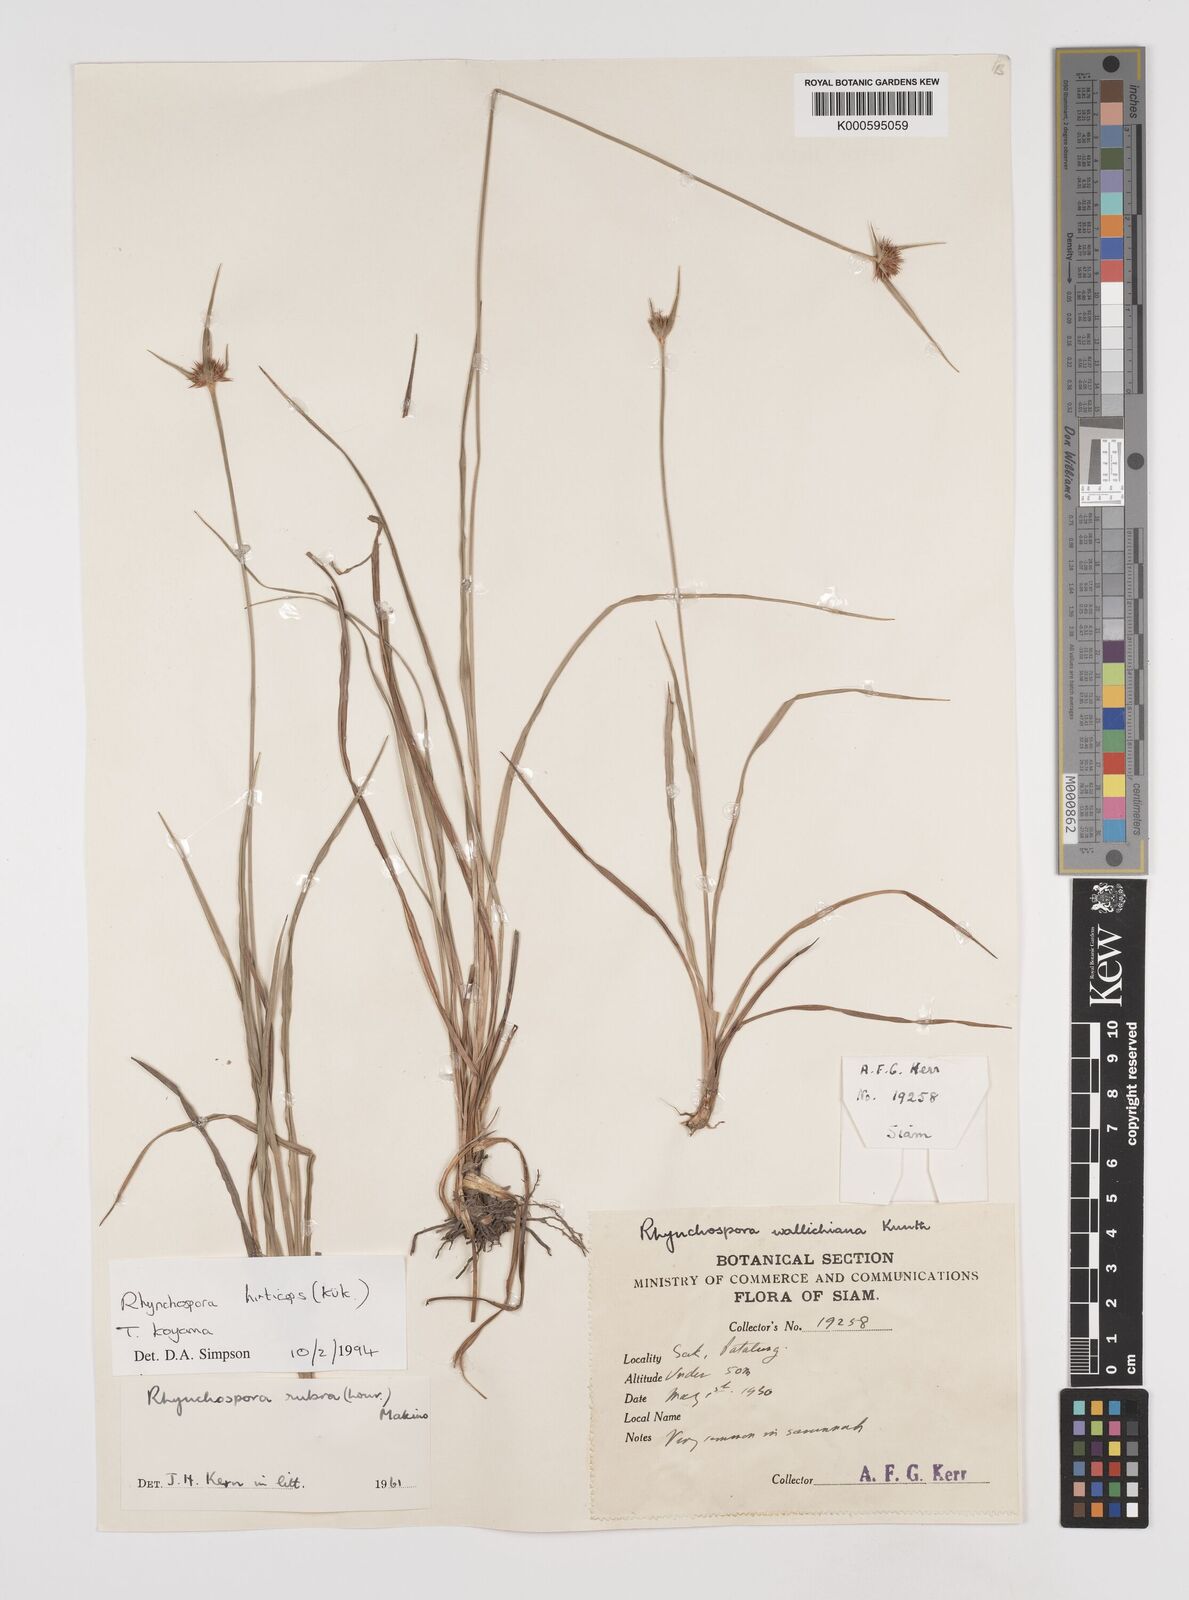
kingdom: Plantae
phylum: Tracheophyta
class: Liliopsida
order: Poales
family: Cyperaceae
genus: Rhynchospora
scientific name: Rhynchospora
